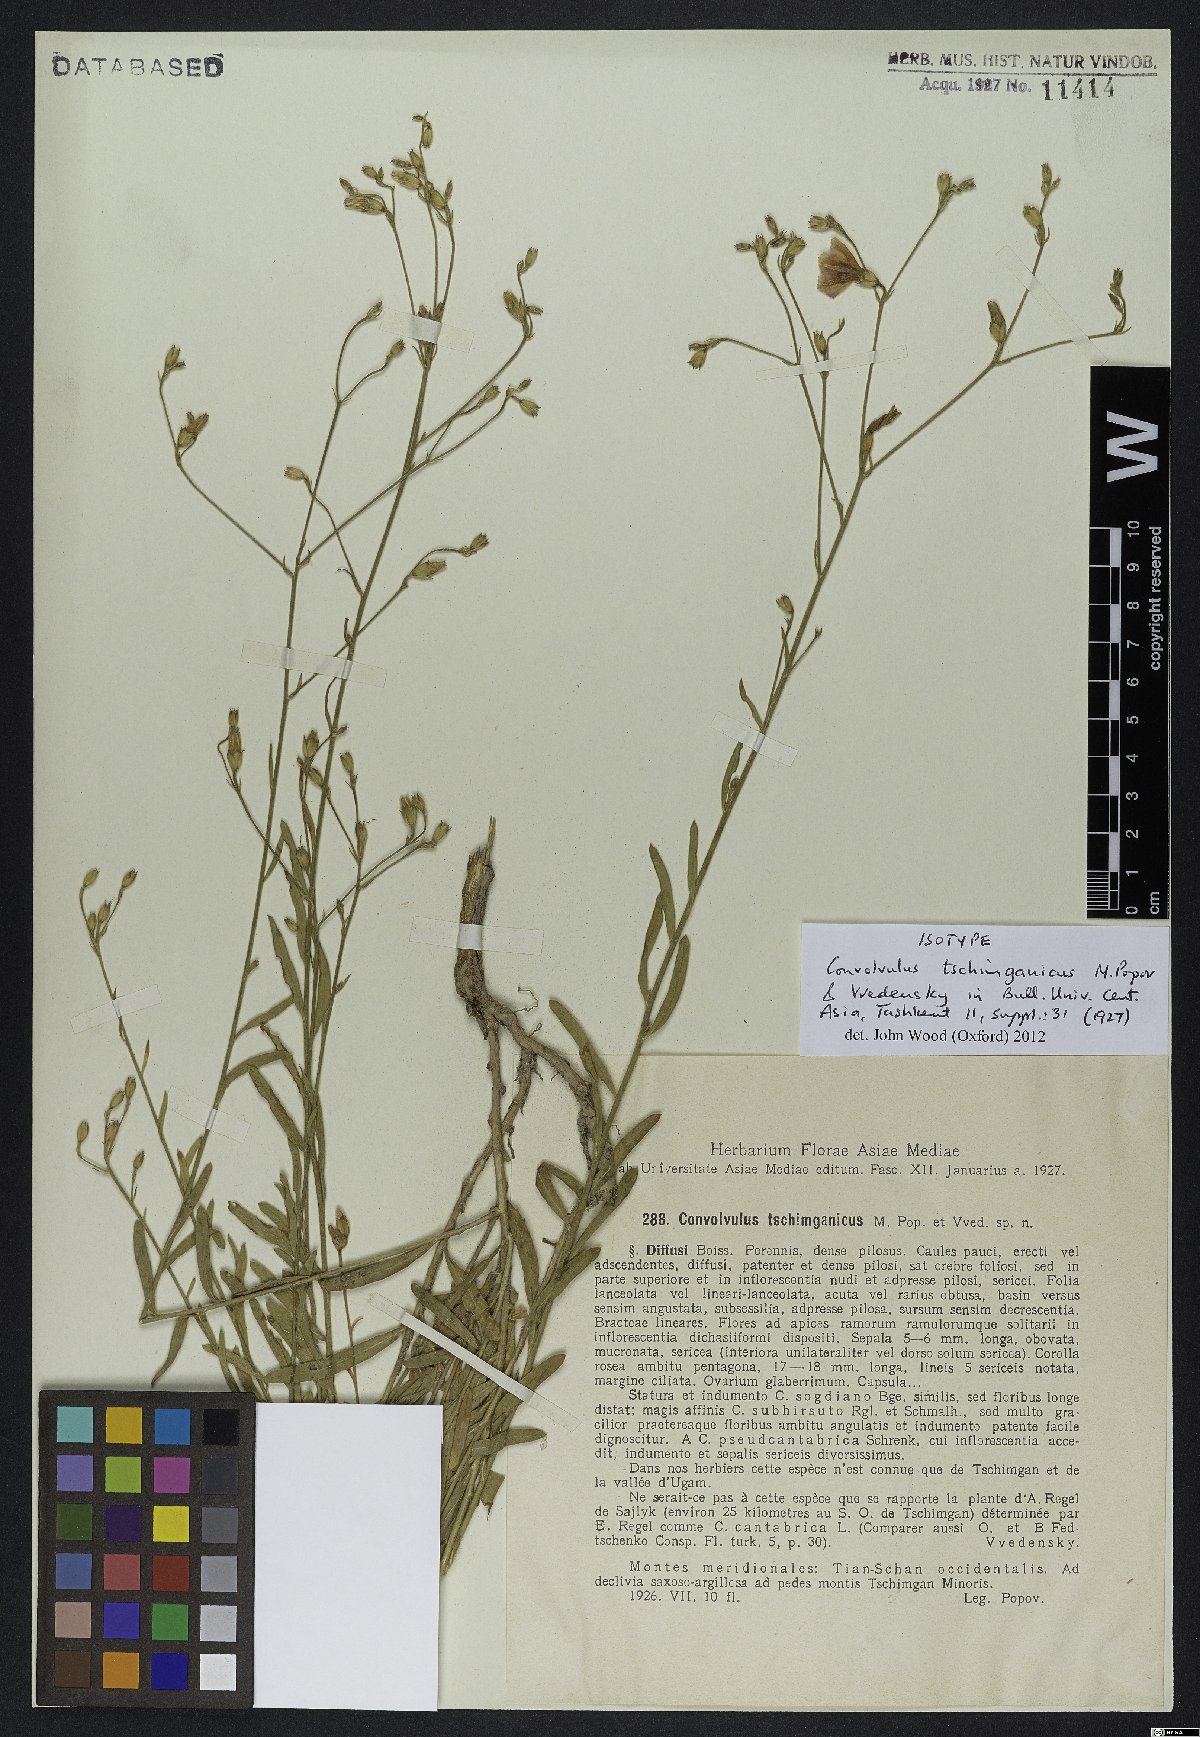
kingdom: Plantae
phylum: Tracheophyta
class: Magnoliopsida
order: Solanales
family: Convolvulaceae
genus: Convolvulus
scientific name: Convolvulus tschimganicus
